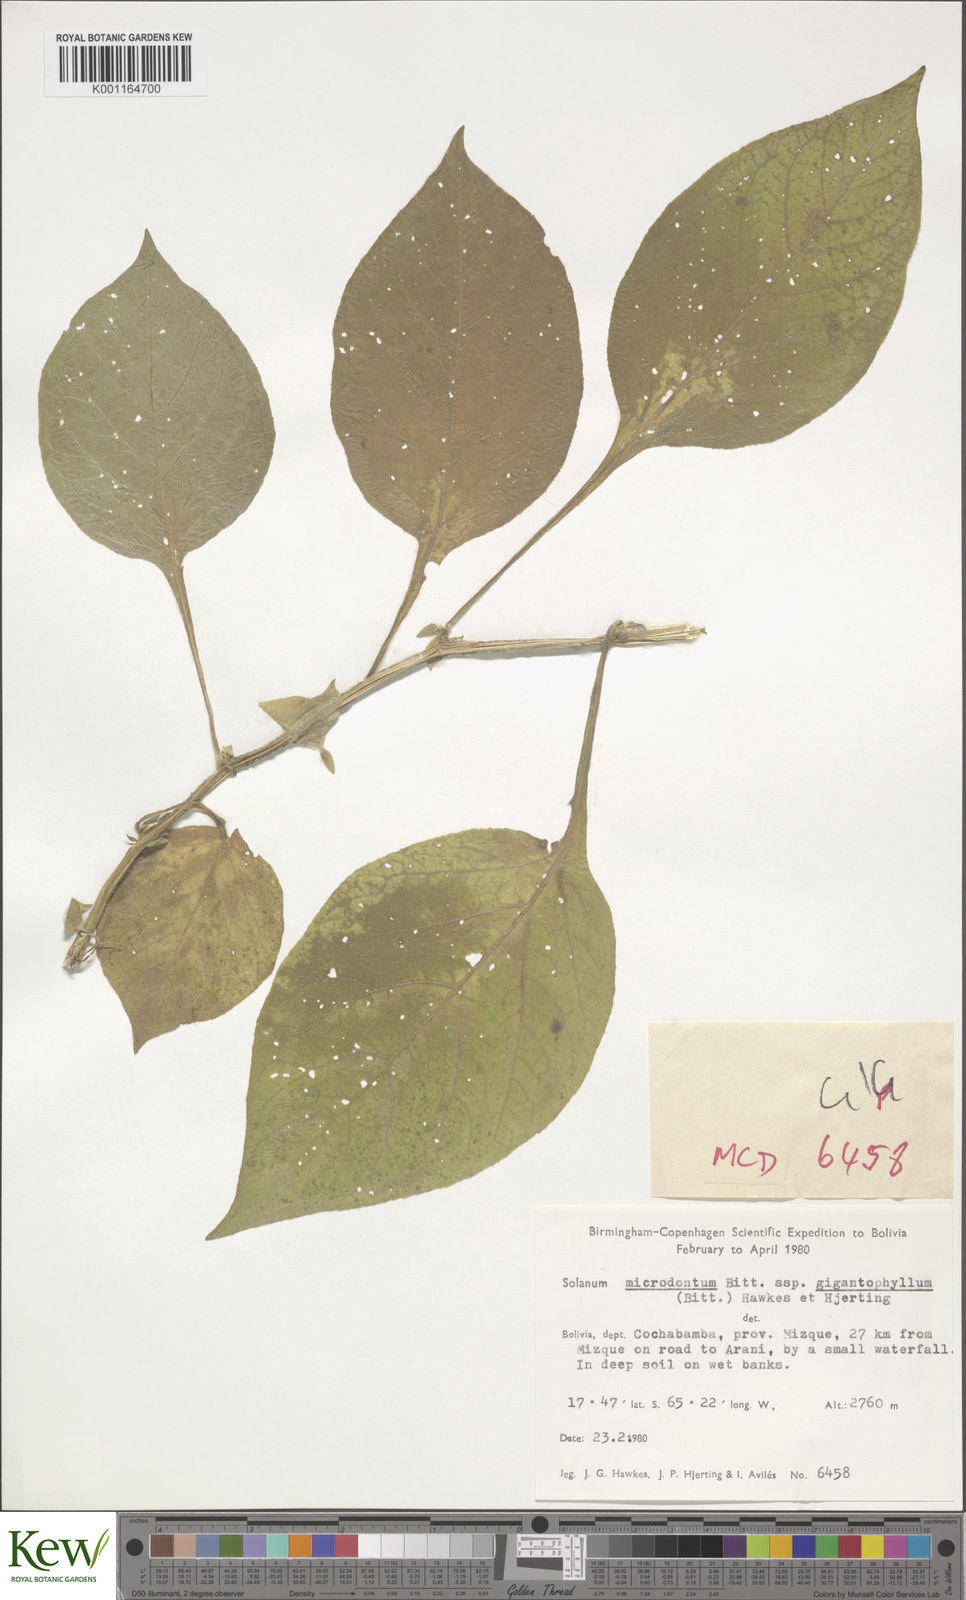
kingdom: Plantae
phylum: Tracheophyta
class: Magnoliopsida
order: Solanales
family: Solanaceae
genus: Solanum
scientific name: Solanum microdontum
